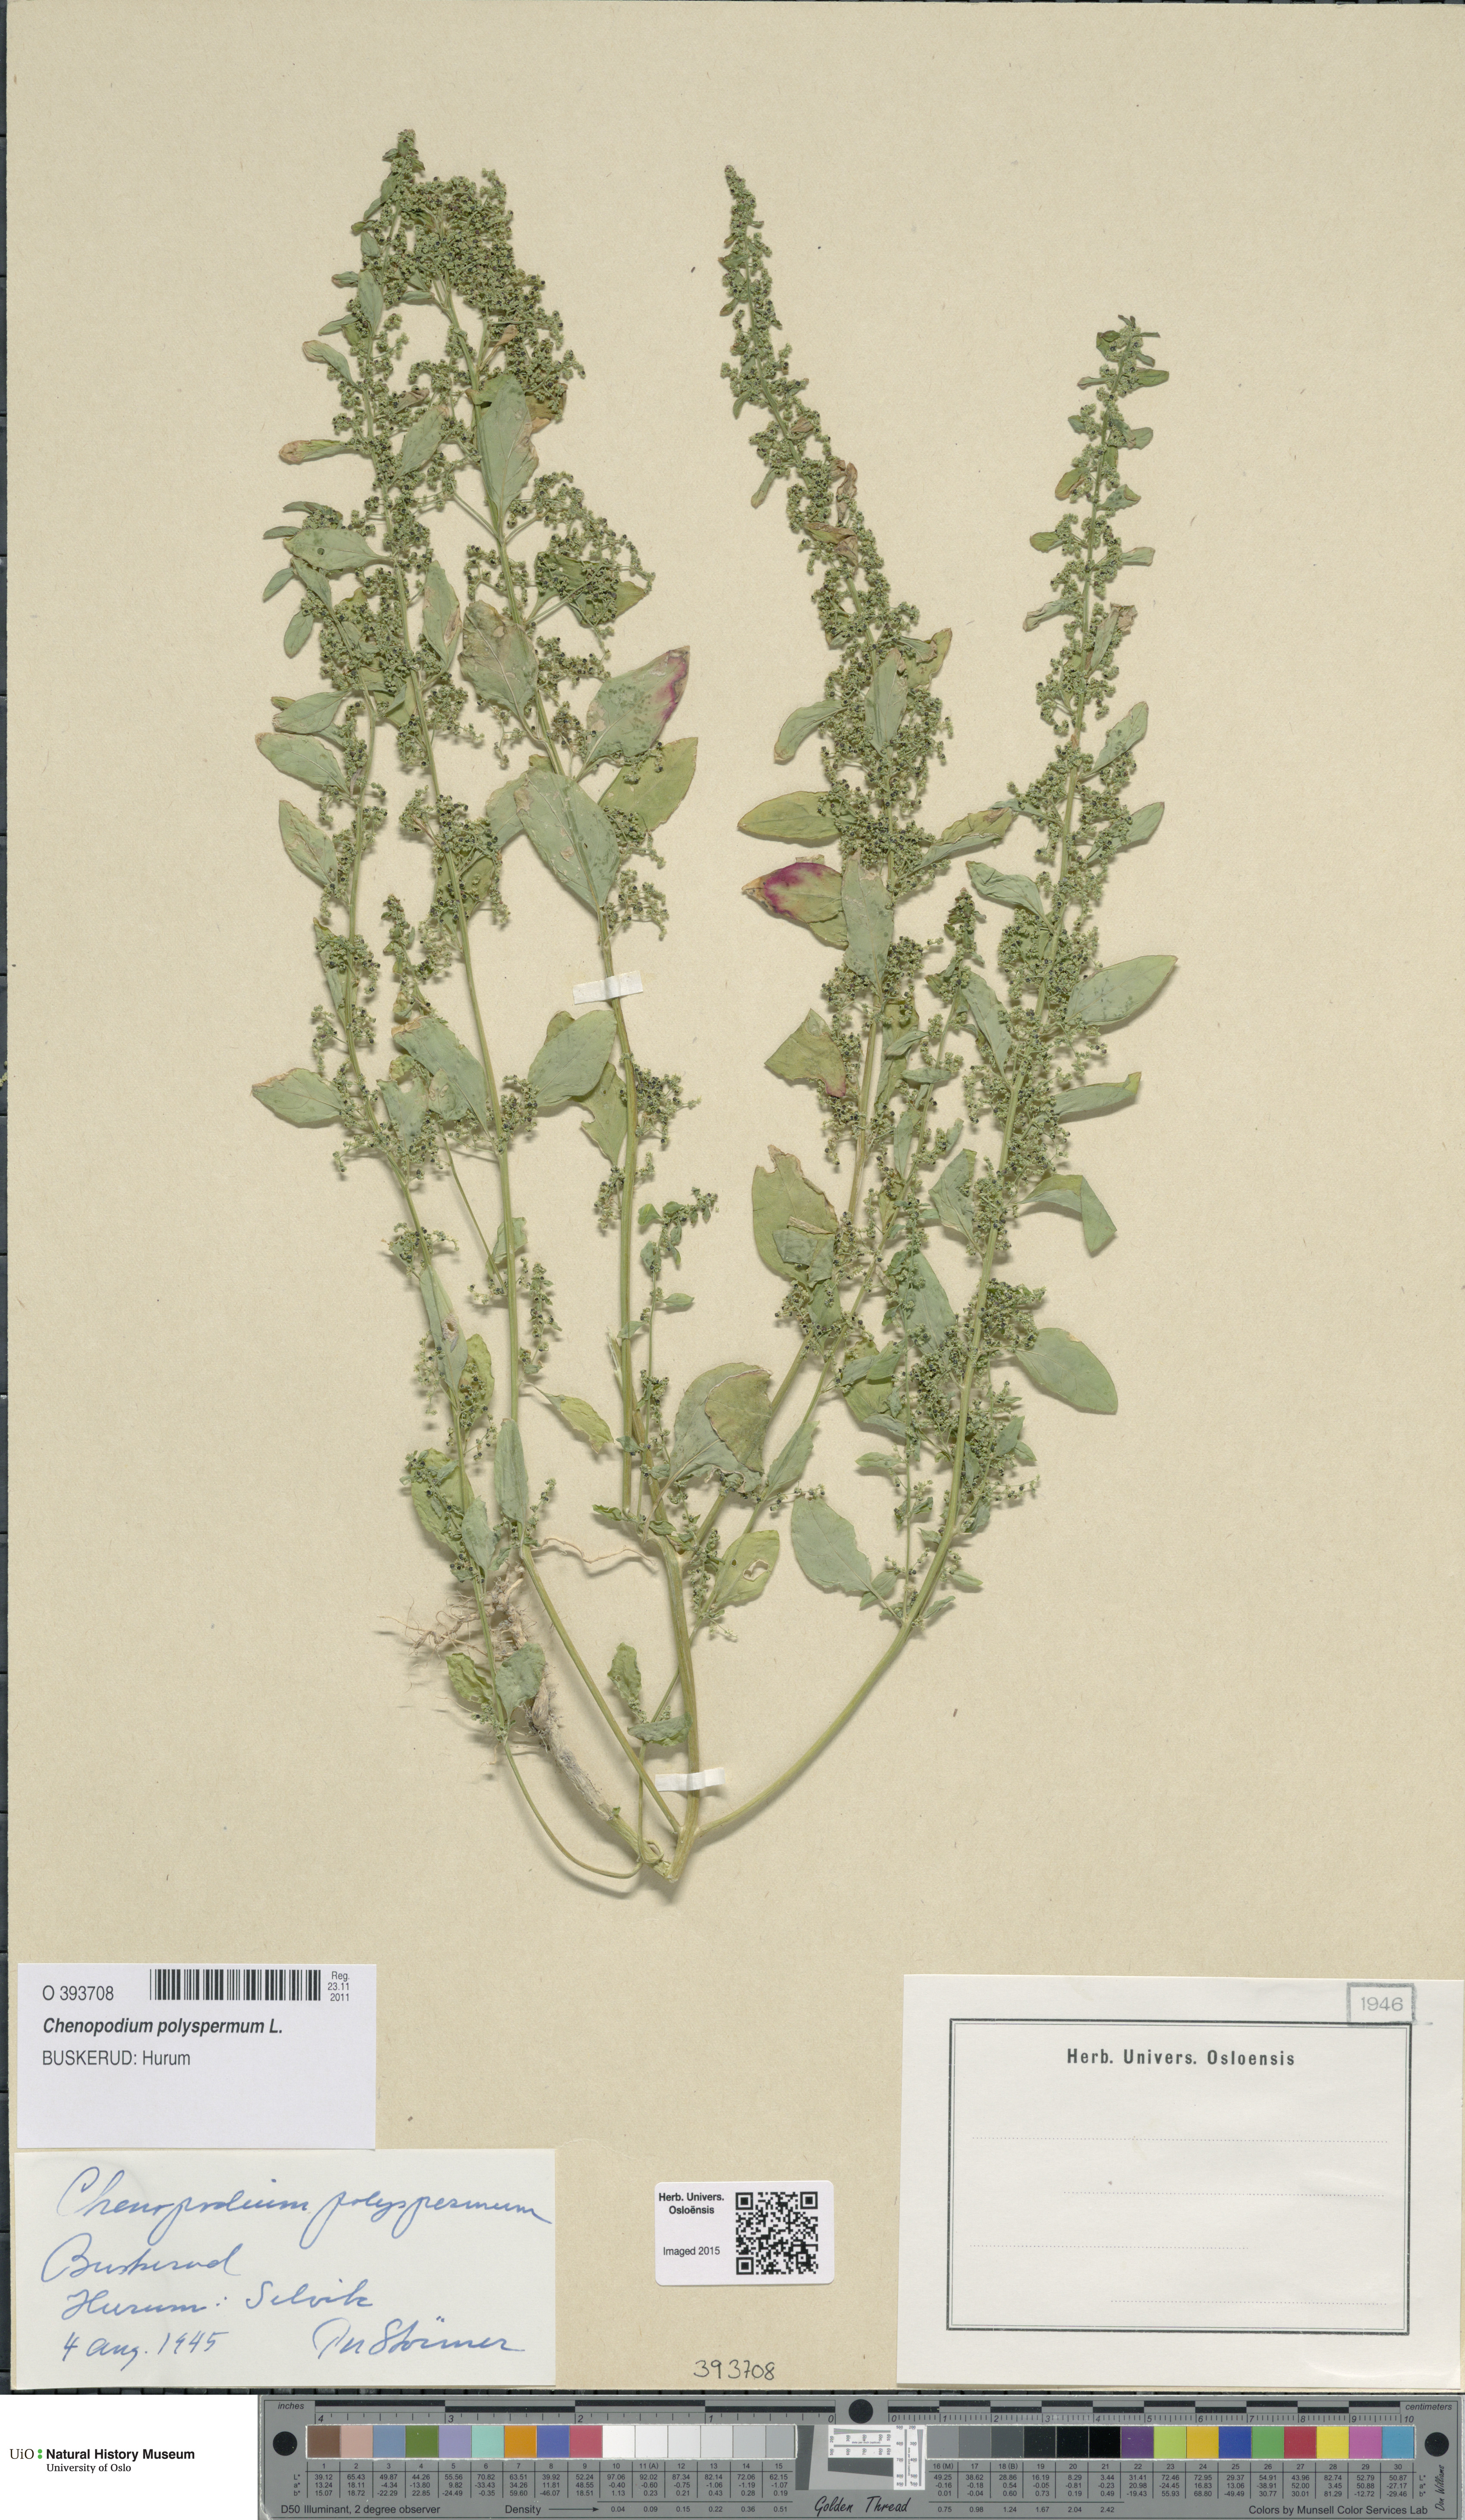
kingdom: Plantae
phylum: Tracheophyta
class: Magnoliopsida
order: Caryophyllales
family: Amaranthaceae
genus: Lipandra
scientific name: Lipandra polysperma
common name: Many-seed goosefoot
